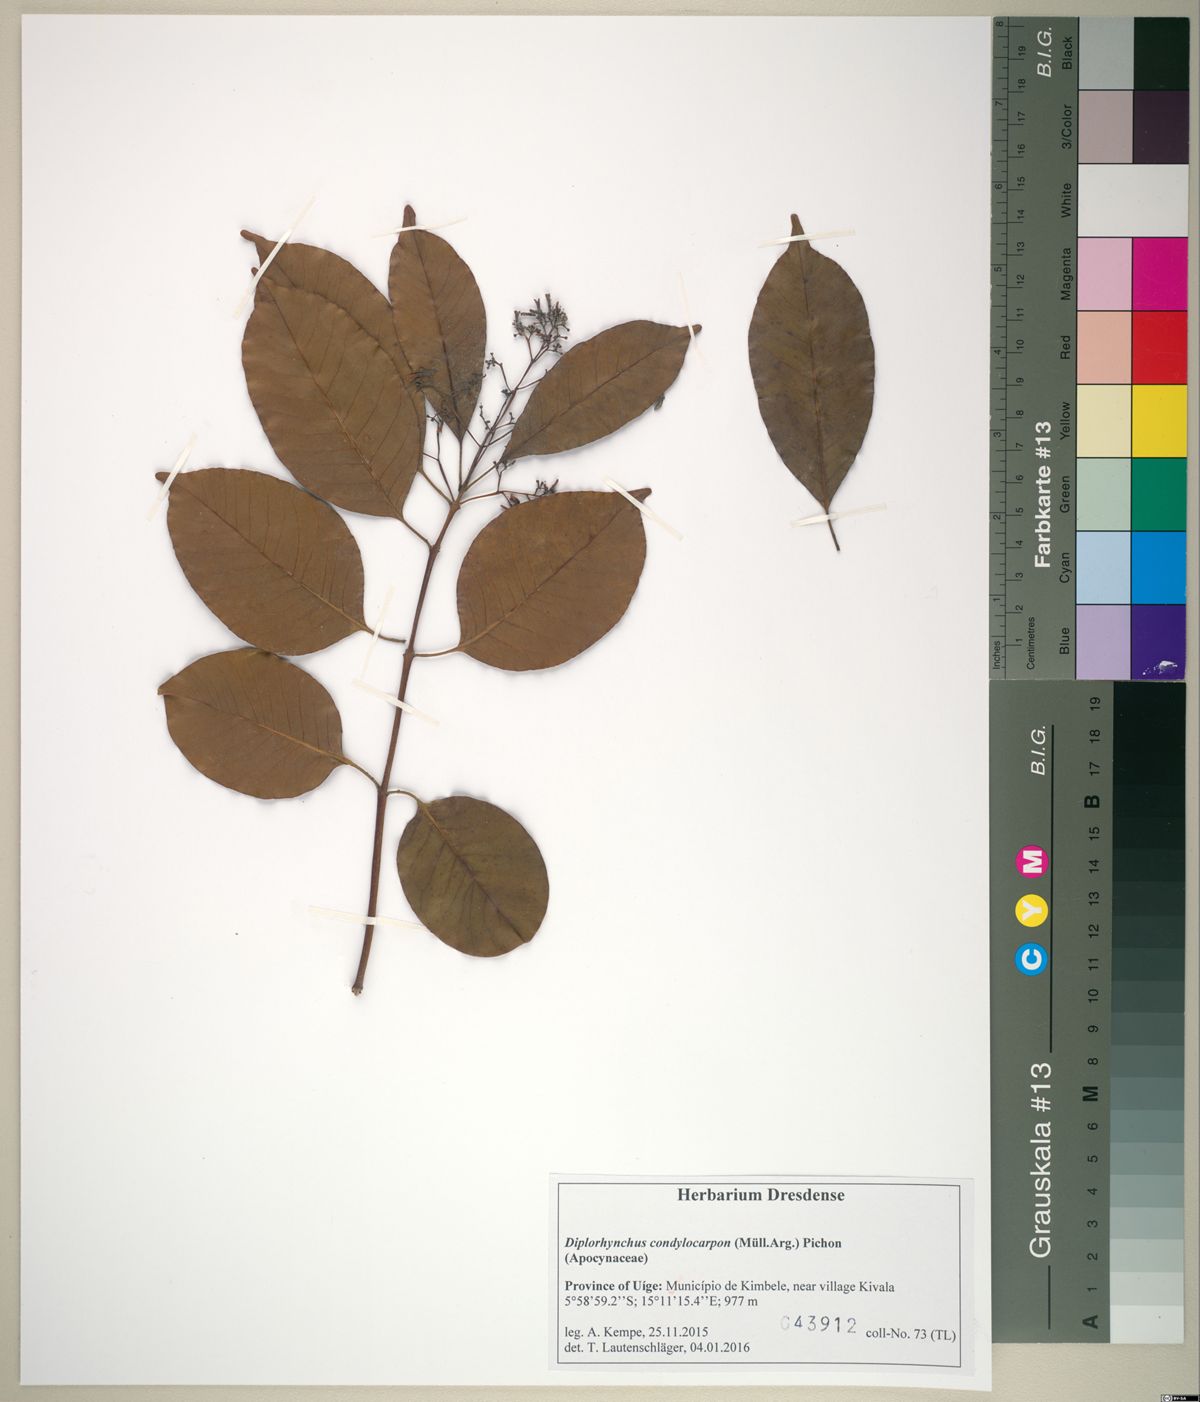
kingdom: Plantae
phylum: Tracheophyta
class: Magnoliopsida
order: Gentianales
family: Apocynaceae
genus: Diplorhynchus
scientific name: Diplorhynchus condylocarpon
